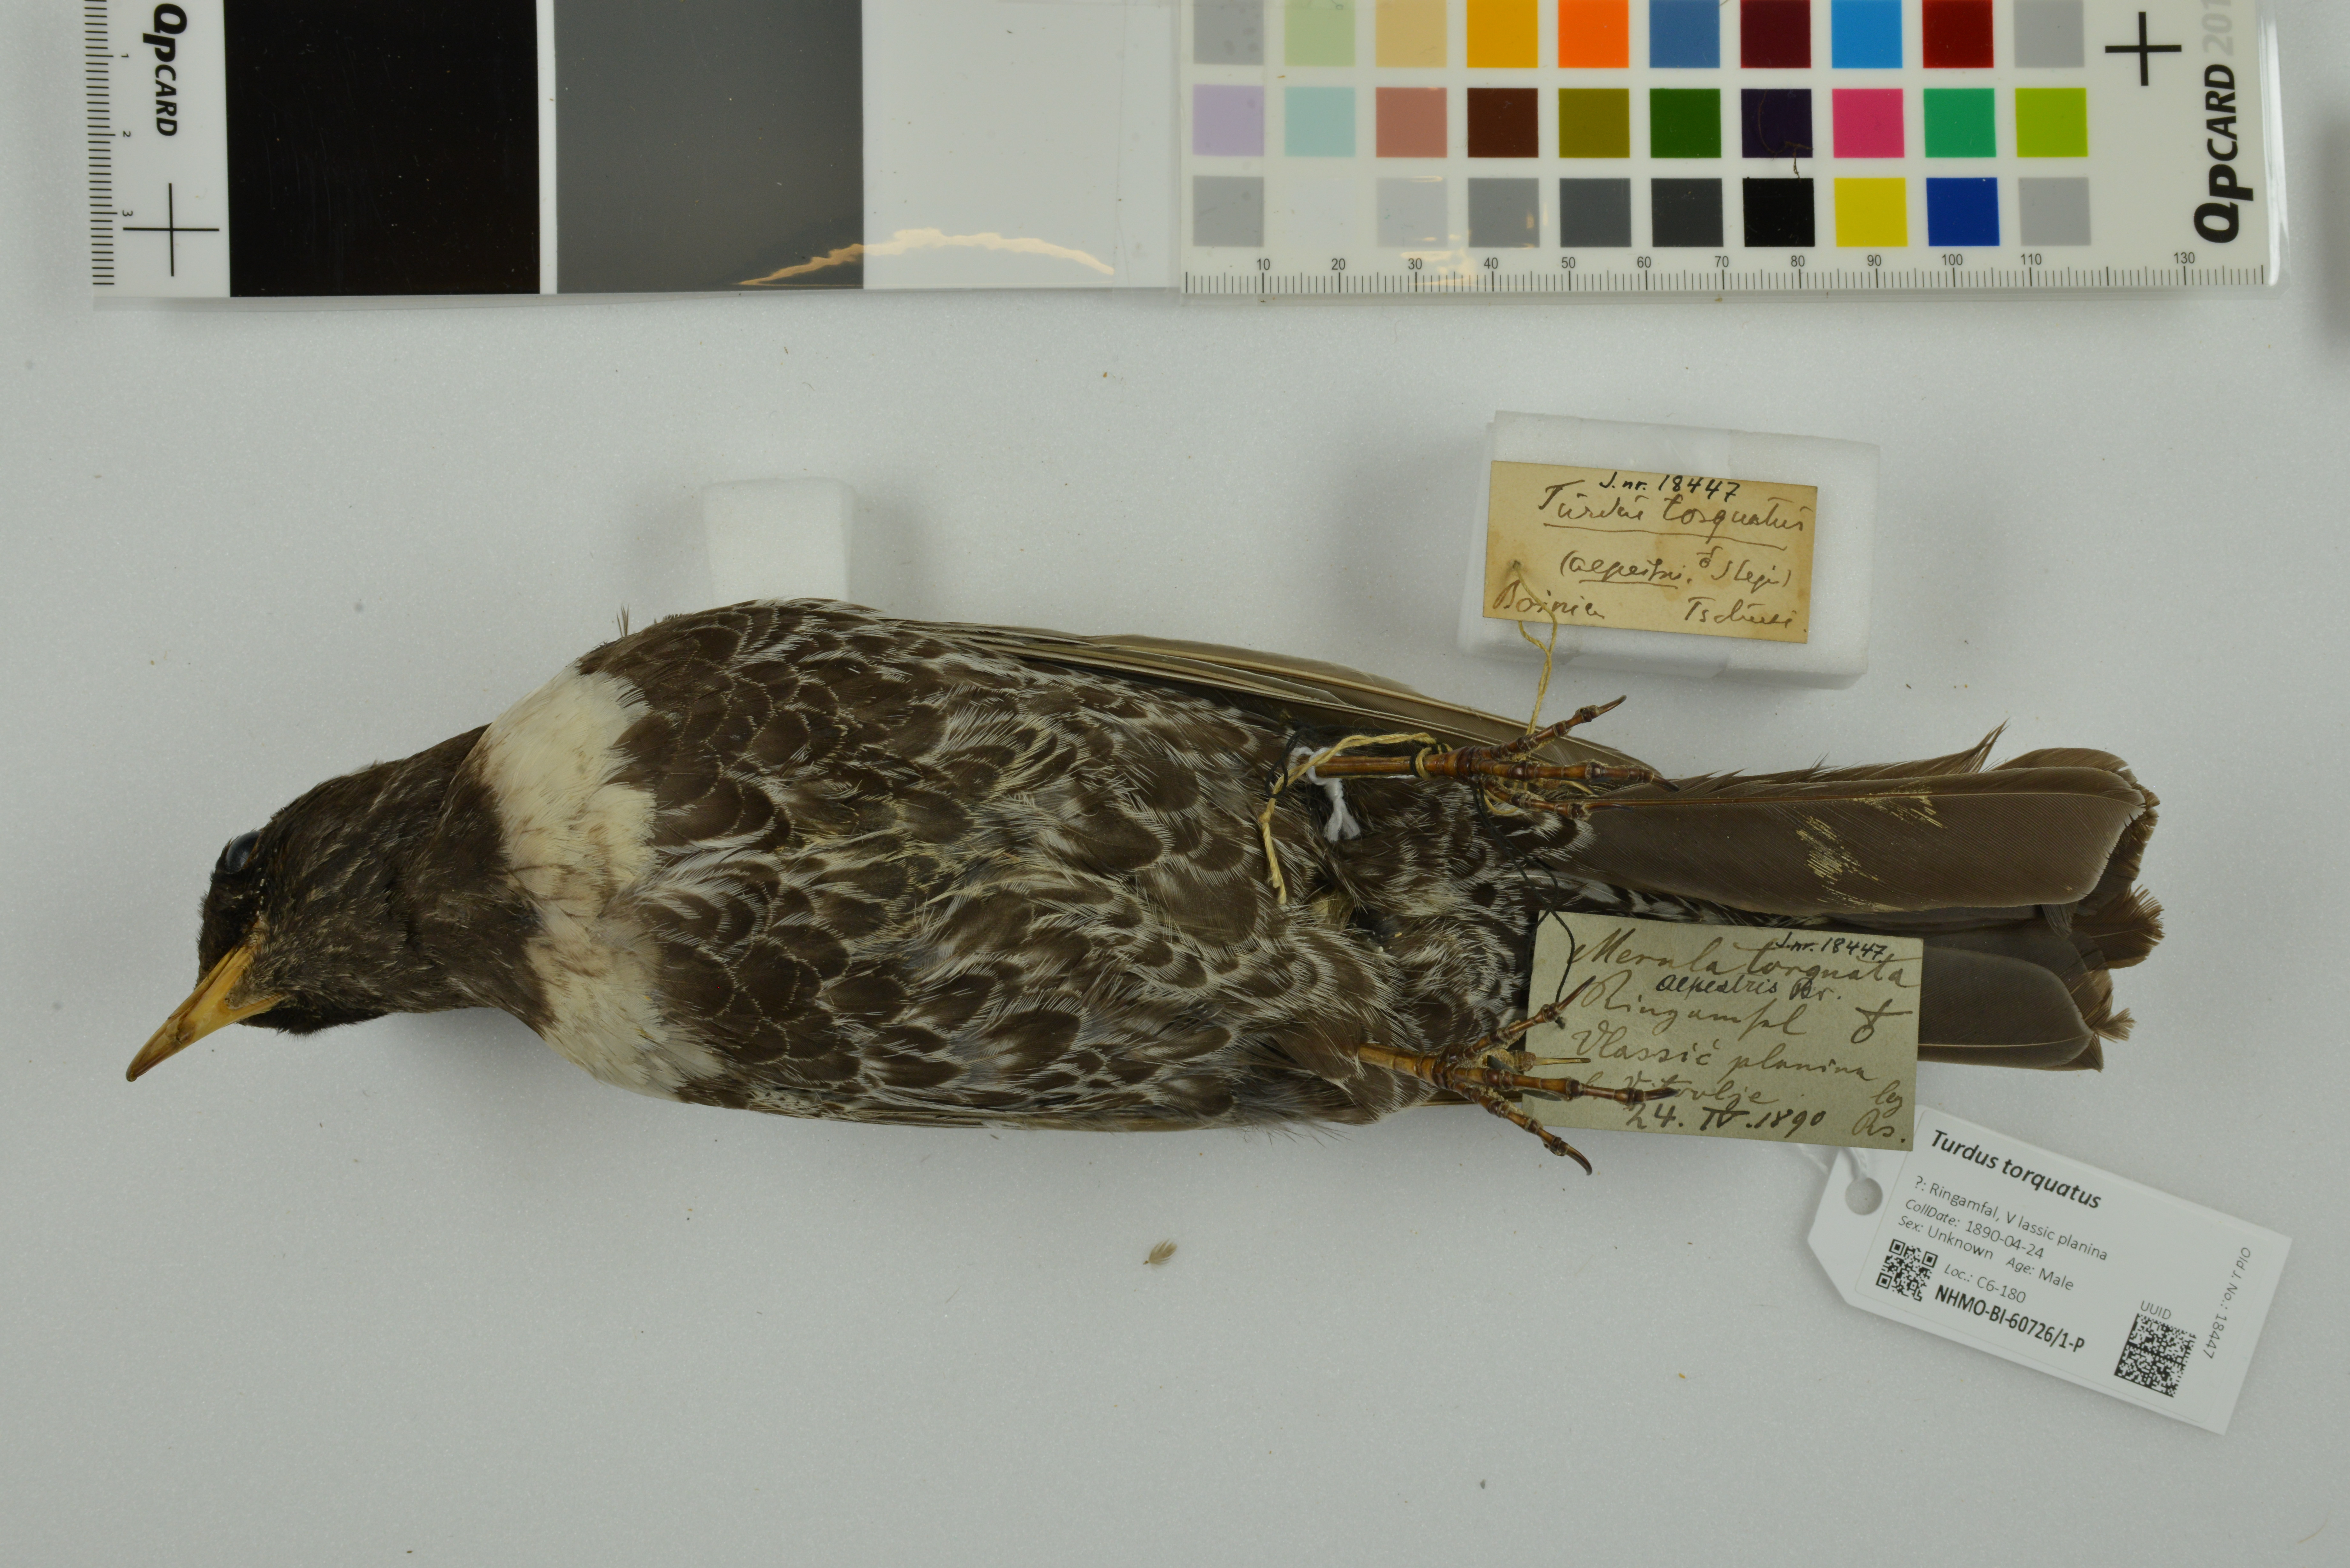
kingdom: Animalia
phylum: Chordata
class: Aves
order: Passeriformes
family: Turdidae
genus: Turdus
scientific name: Turdus torquatus
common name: Ring ouzel
